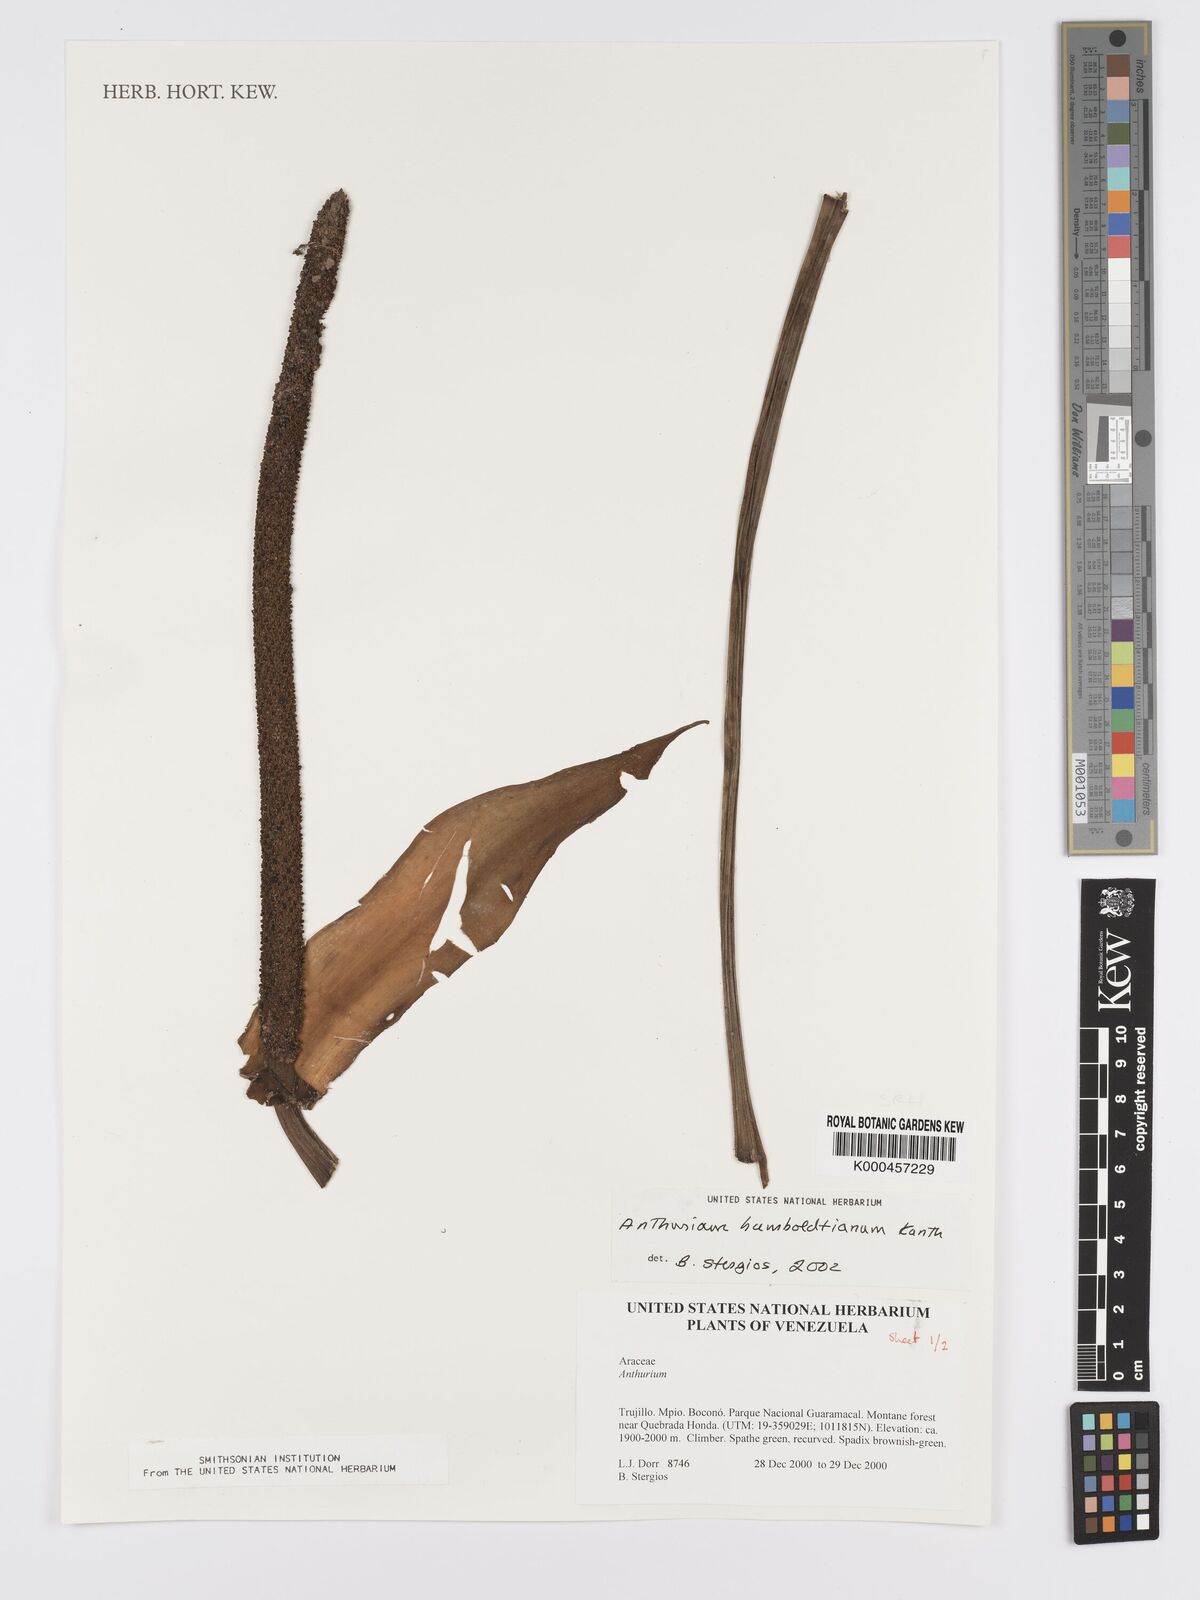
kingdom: Plantae
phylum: Tracheophyta
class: Liliopsida
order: Alismatales
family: Araceae
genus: Anthurium
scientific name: Anthurium
